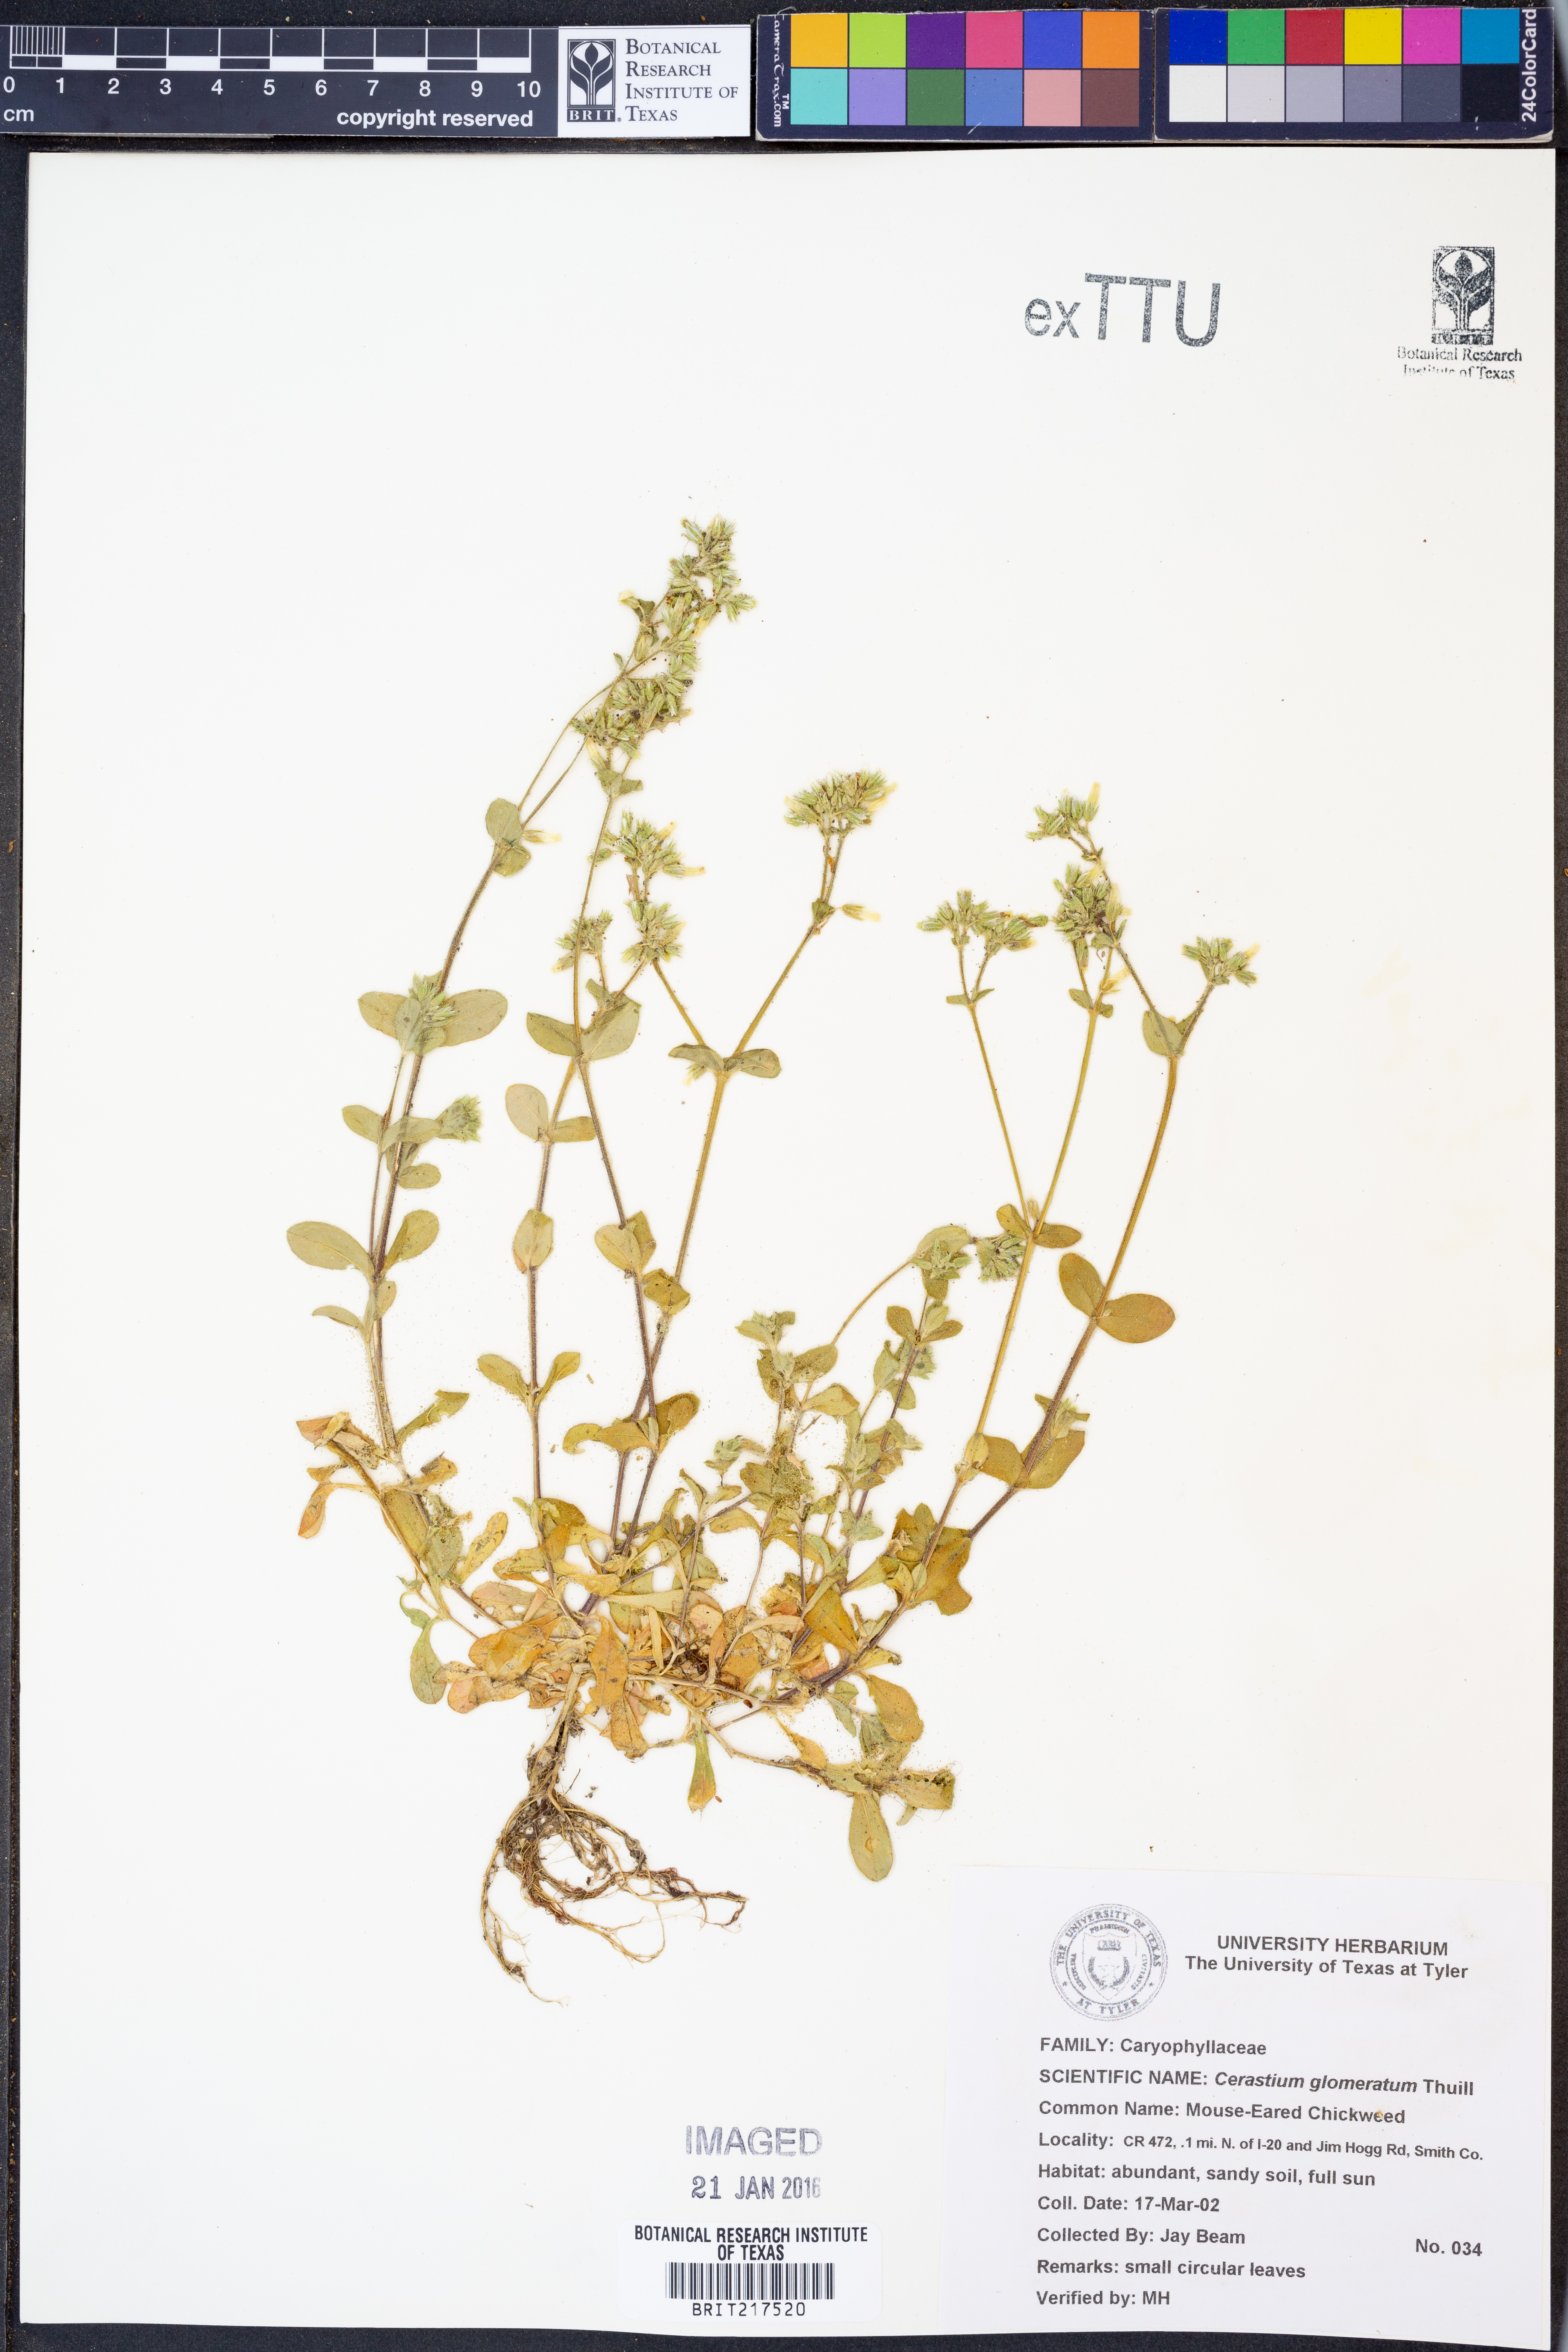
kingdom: Plantae
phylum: Tracheophyta
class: Magnoliopsida
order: Caryophyllales
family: Caryophyllaceae
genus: Cerastium
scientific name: Cerastium glomeratum
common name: Sticky chickweed
